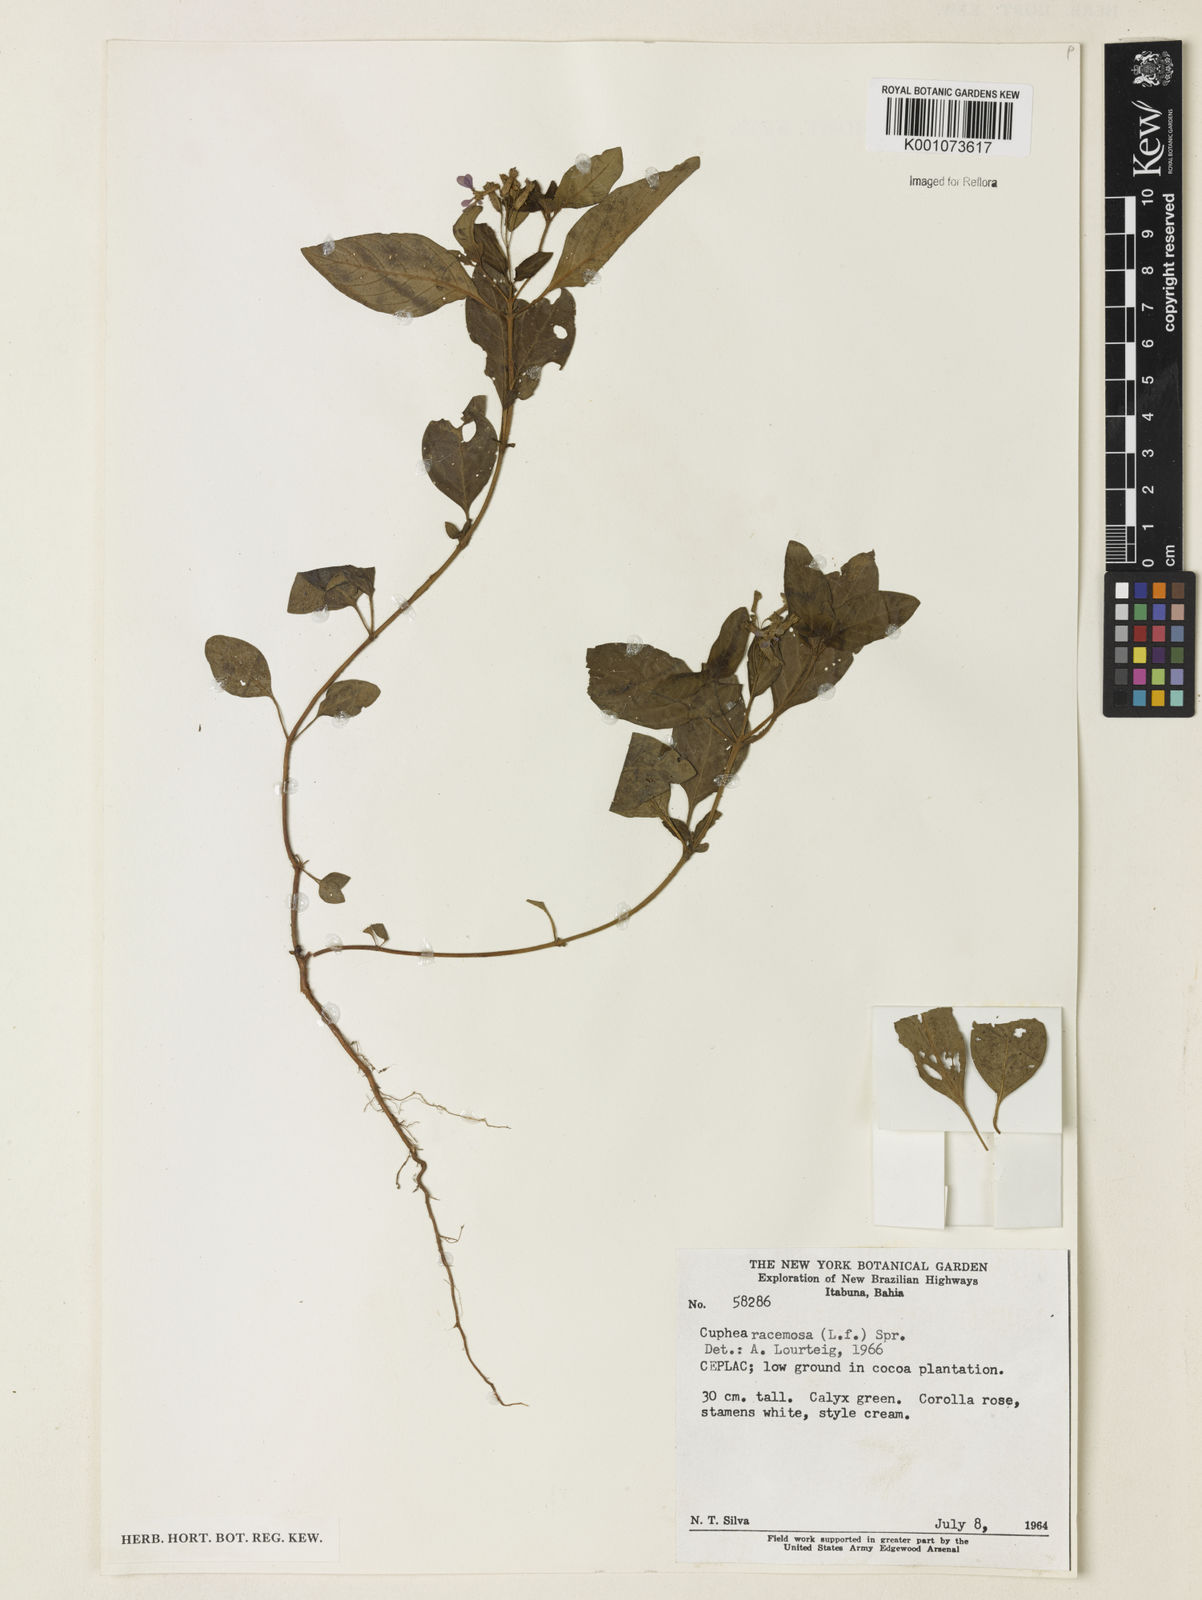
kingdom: Plantae
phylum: Tracheophyta
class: Magnoliopsida
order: Myrtales
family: Lythraceae
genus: Cuphea
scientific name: Cuphea racemosa
